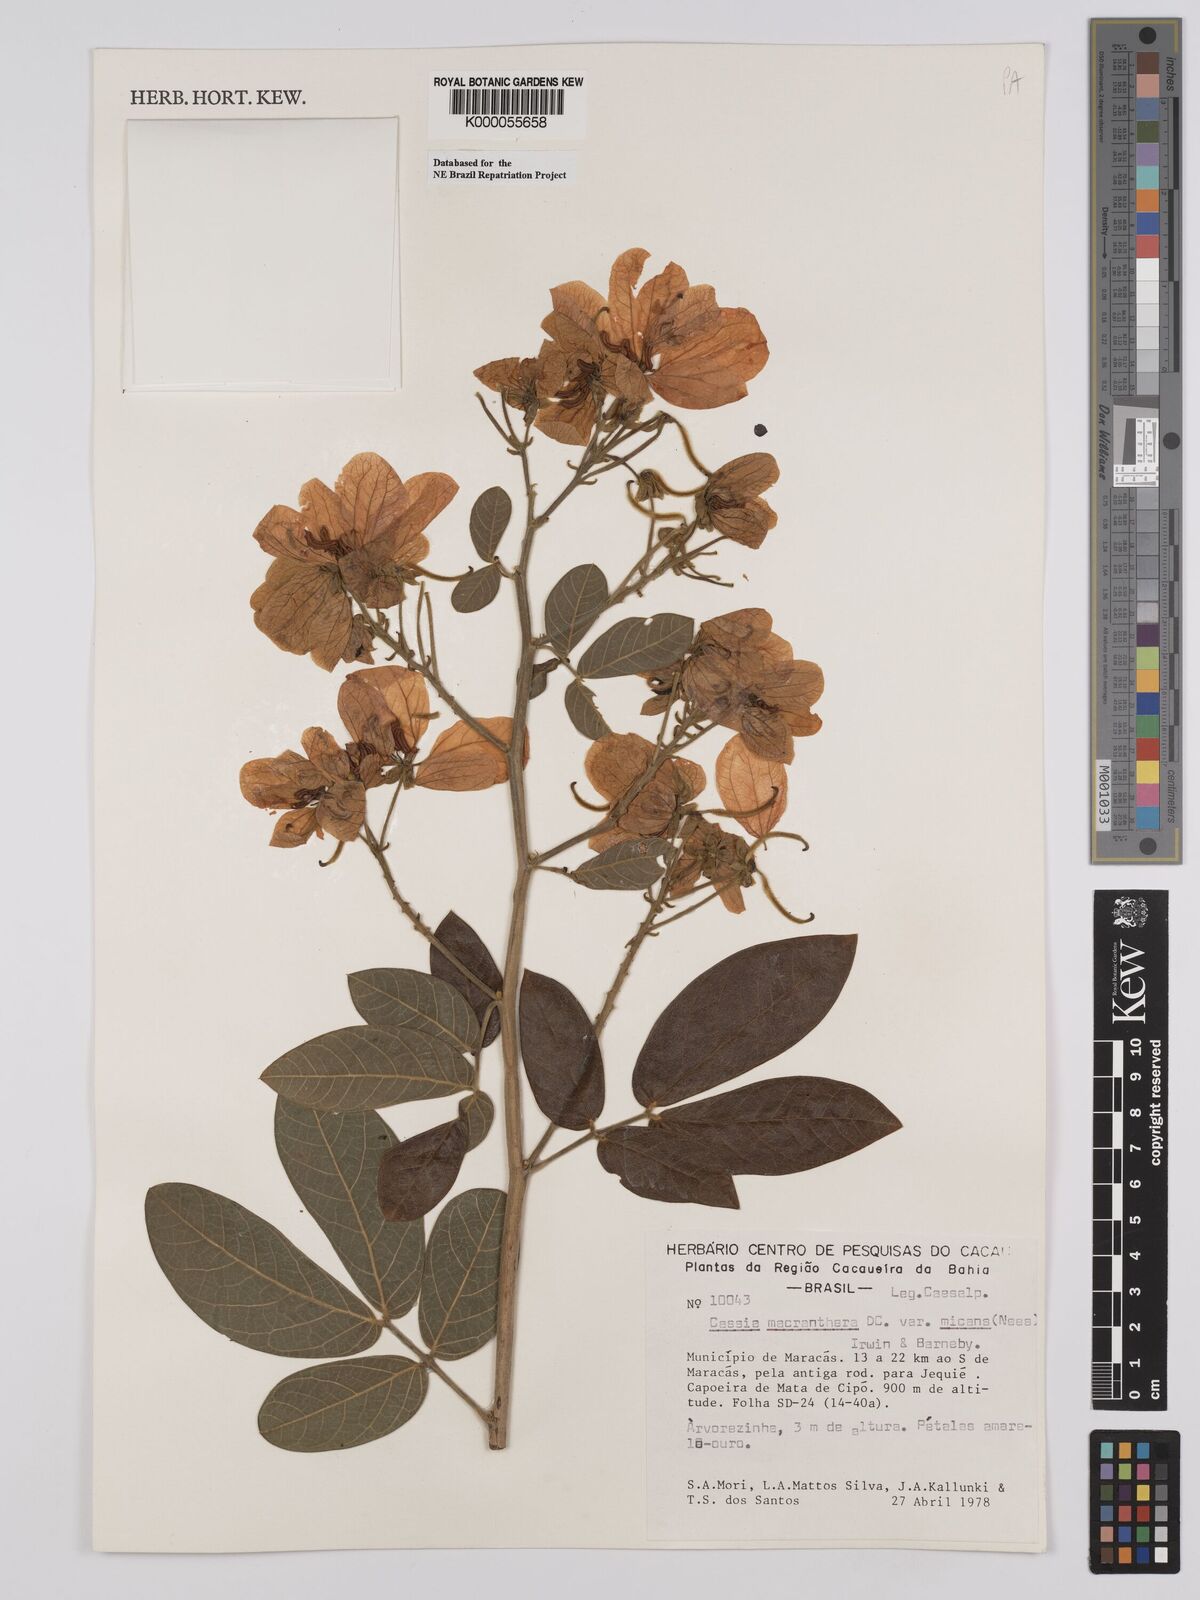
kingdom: Plantae
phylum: Tracheophyta
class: Magnoliopsida
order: Fabales
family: Fabaceae
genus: Senna
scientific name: Senna macranthera
